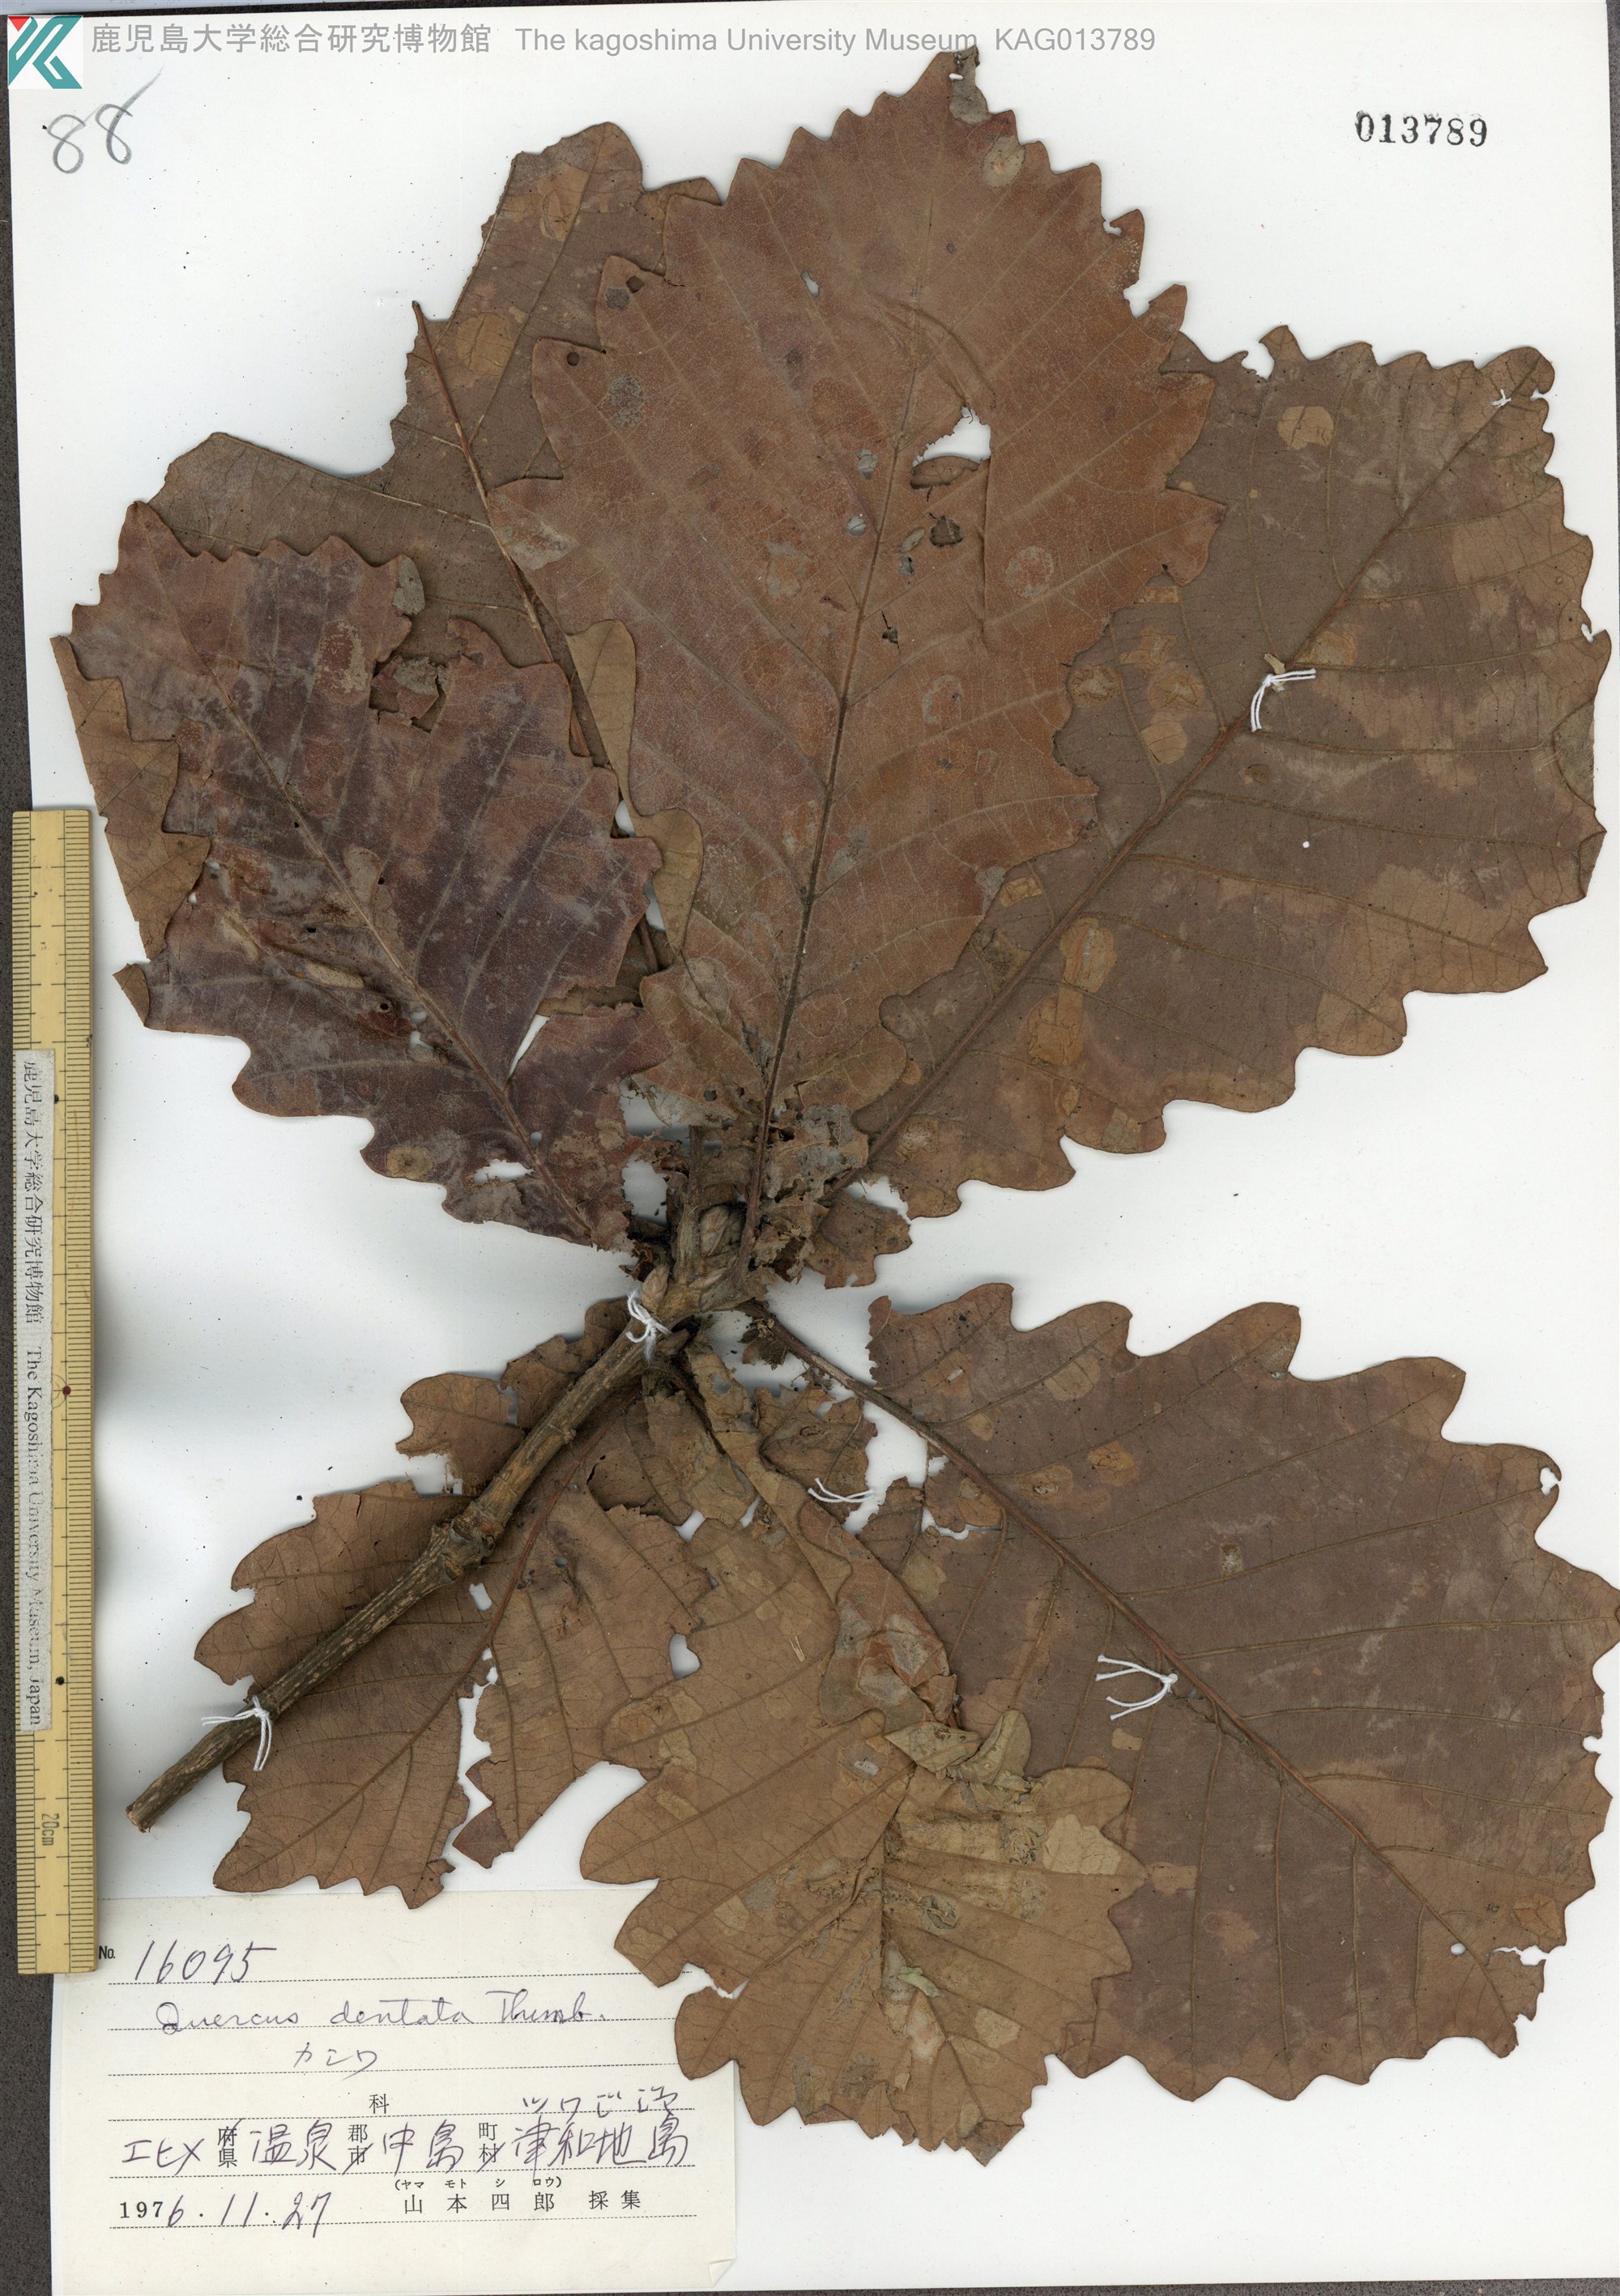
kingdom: Plantae
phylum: Tracheophyta
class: Magnoliopsida
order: Fagales
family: Fagaceae
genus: Quercus
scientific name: Quercus dentata
